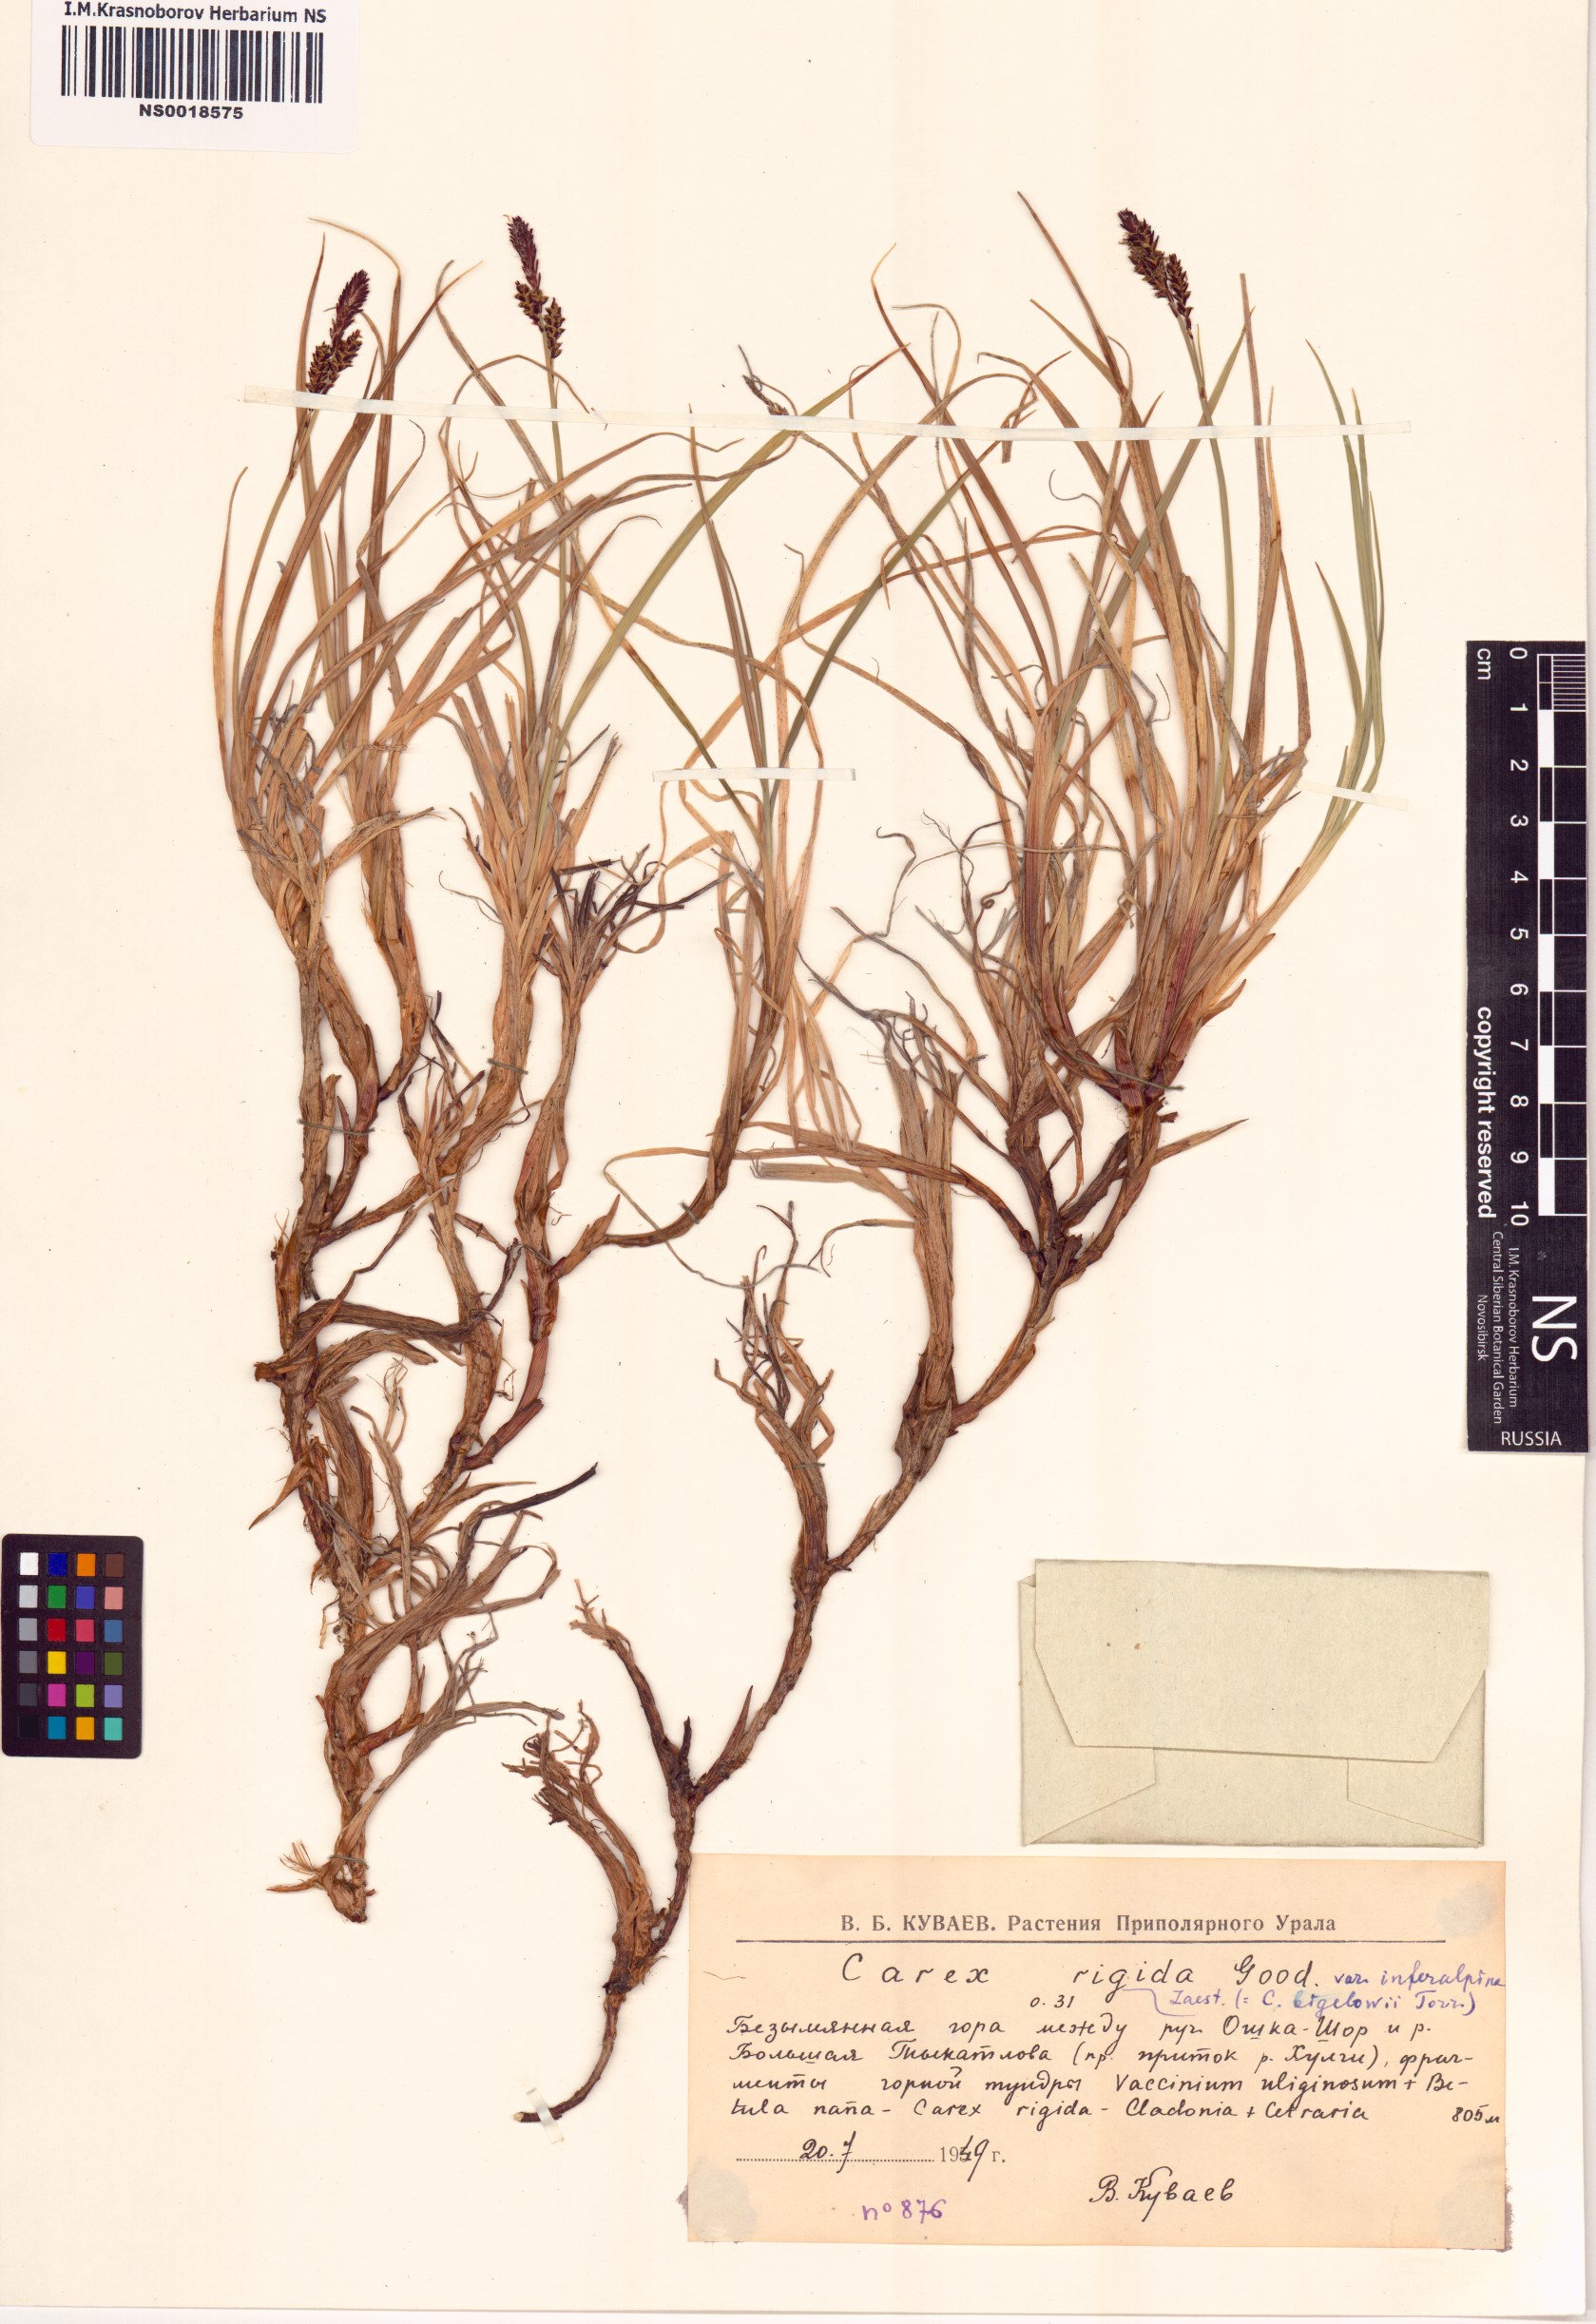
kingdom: Plantae
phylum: Tracheophyta
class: Liliopsida
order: Poales
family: Cyperaceae
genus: Carex
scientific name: Carex bigelowii
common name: Stiff sedge
